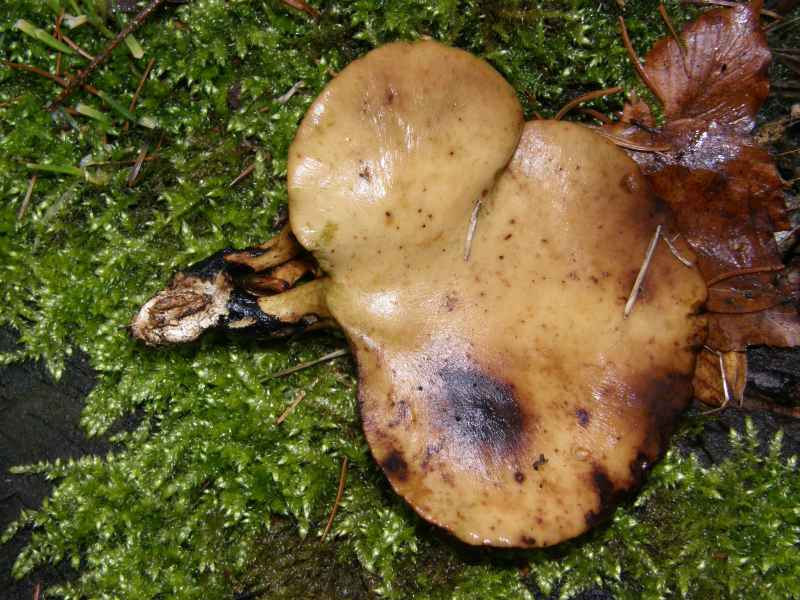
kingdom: Fungi
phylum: Basidiomycota
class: Agaricomycetes
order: Polyporales
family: Polyporaceae
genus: Cerioporus
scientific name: Cerioporus varius
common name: foranderlig stilkporesvamp
